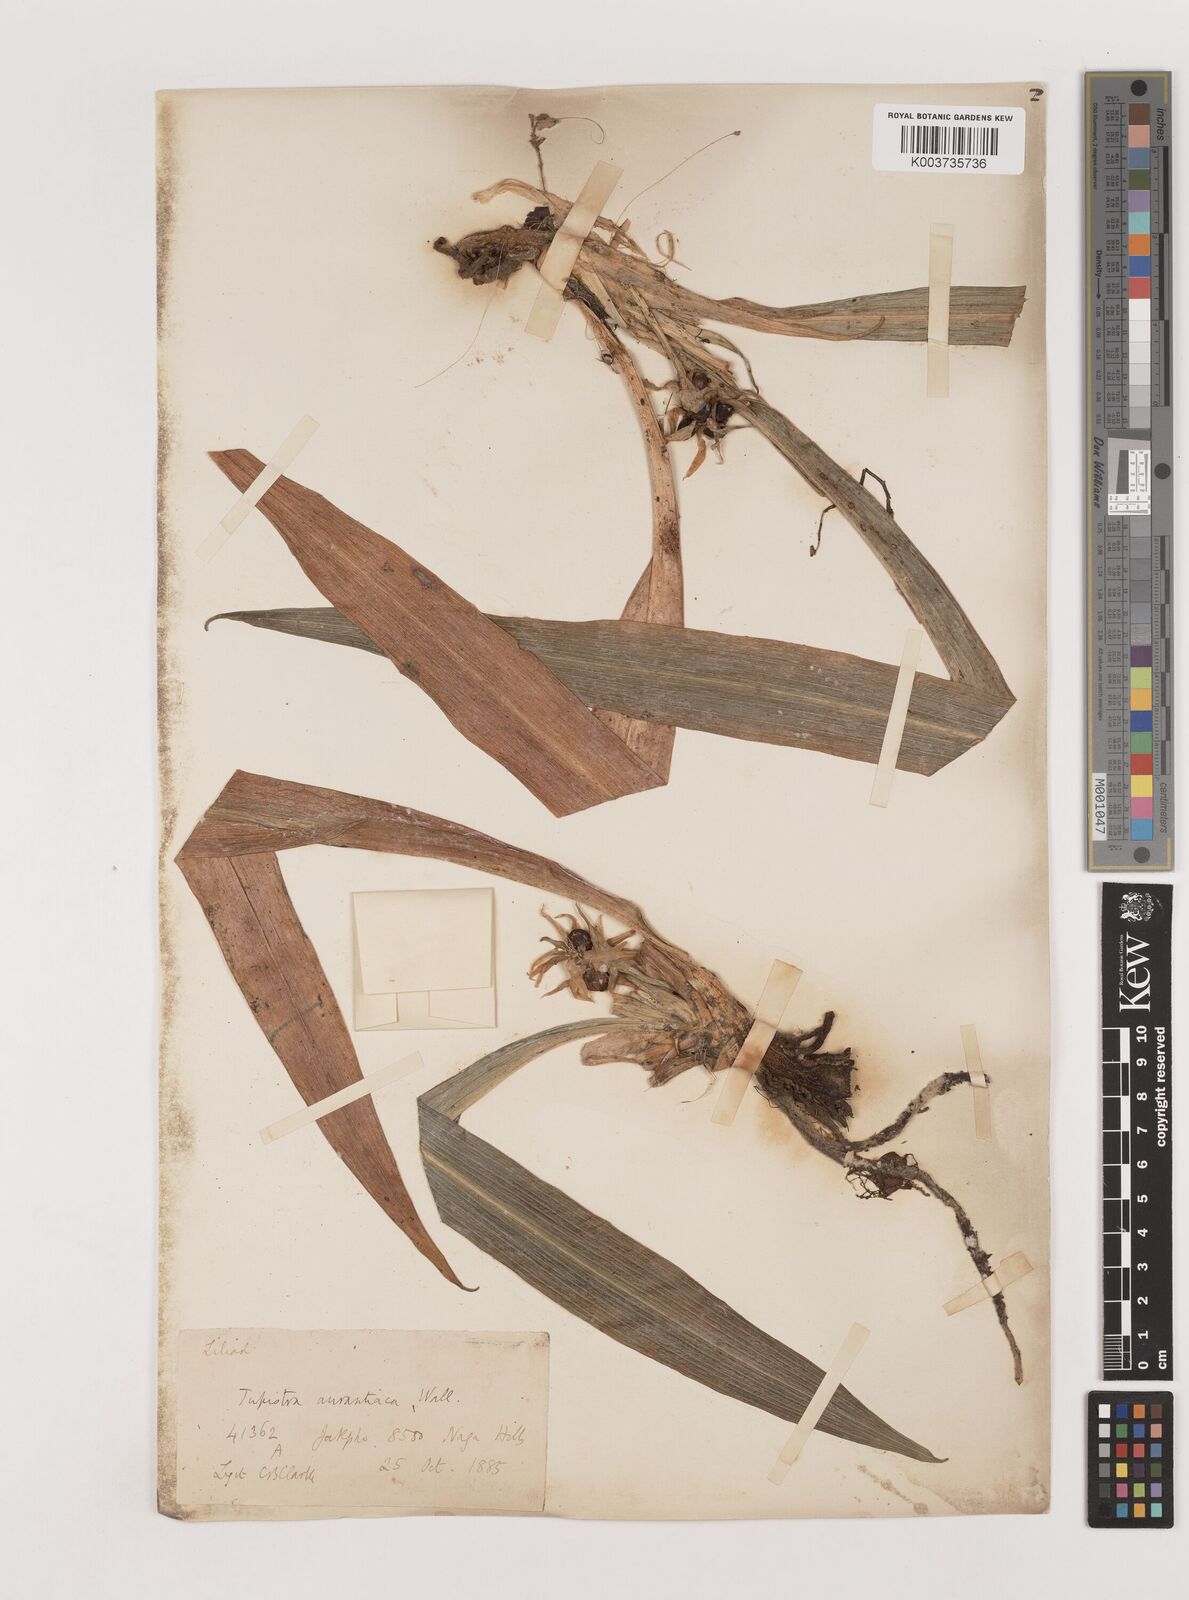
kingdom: Plantae
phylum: Tracheophyta
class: Liliopsida
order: Asparagales
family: Asparagaceae
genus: Rohdea
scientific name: Rohdea nepalensis
